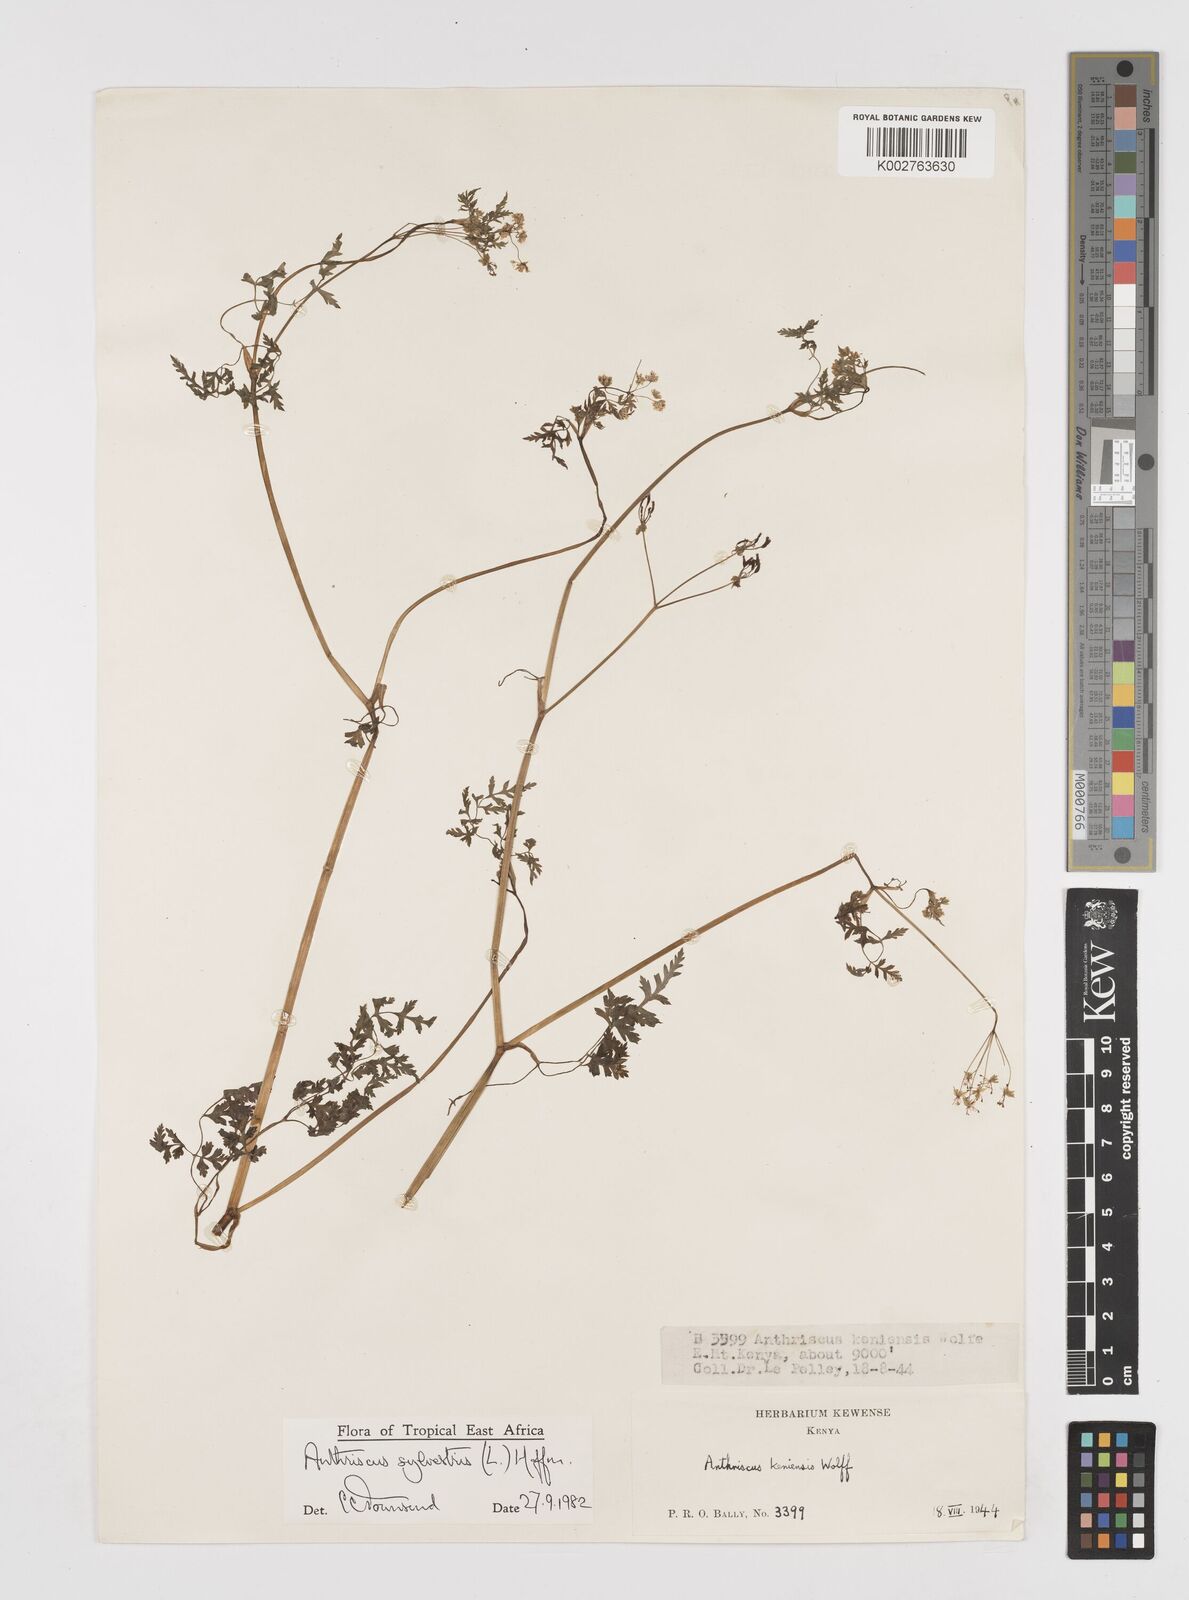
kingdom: Plantae
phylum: Tracheophyta
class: Magnoliopsida
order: Apiales
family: Apiaceae
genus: Anthriscus
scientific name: Anthriscus sylvestris
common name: Cow parsley
